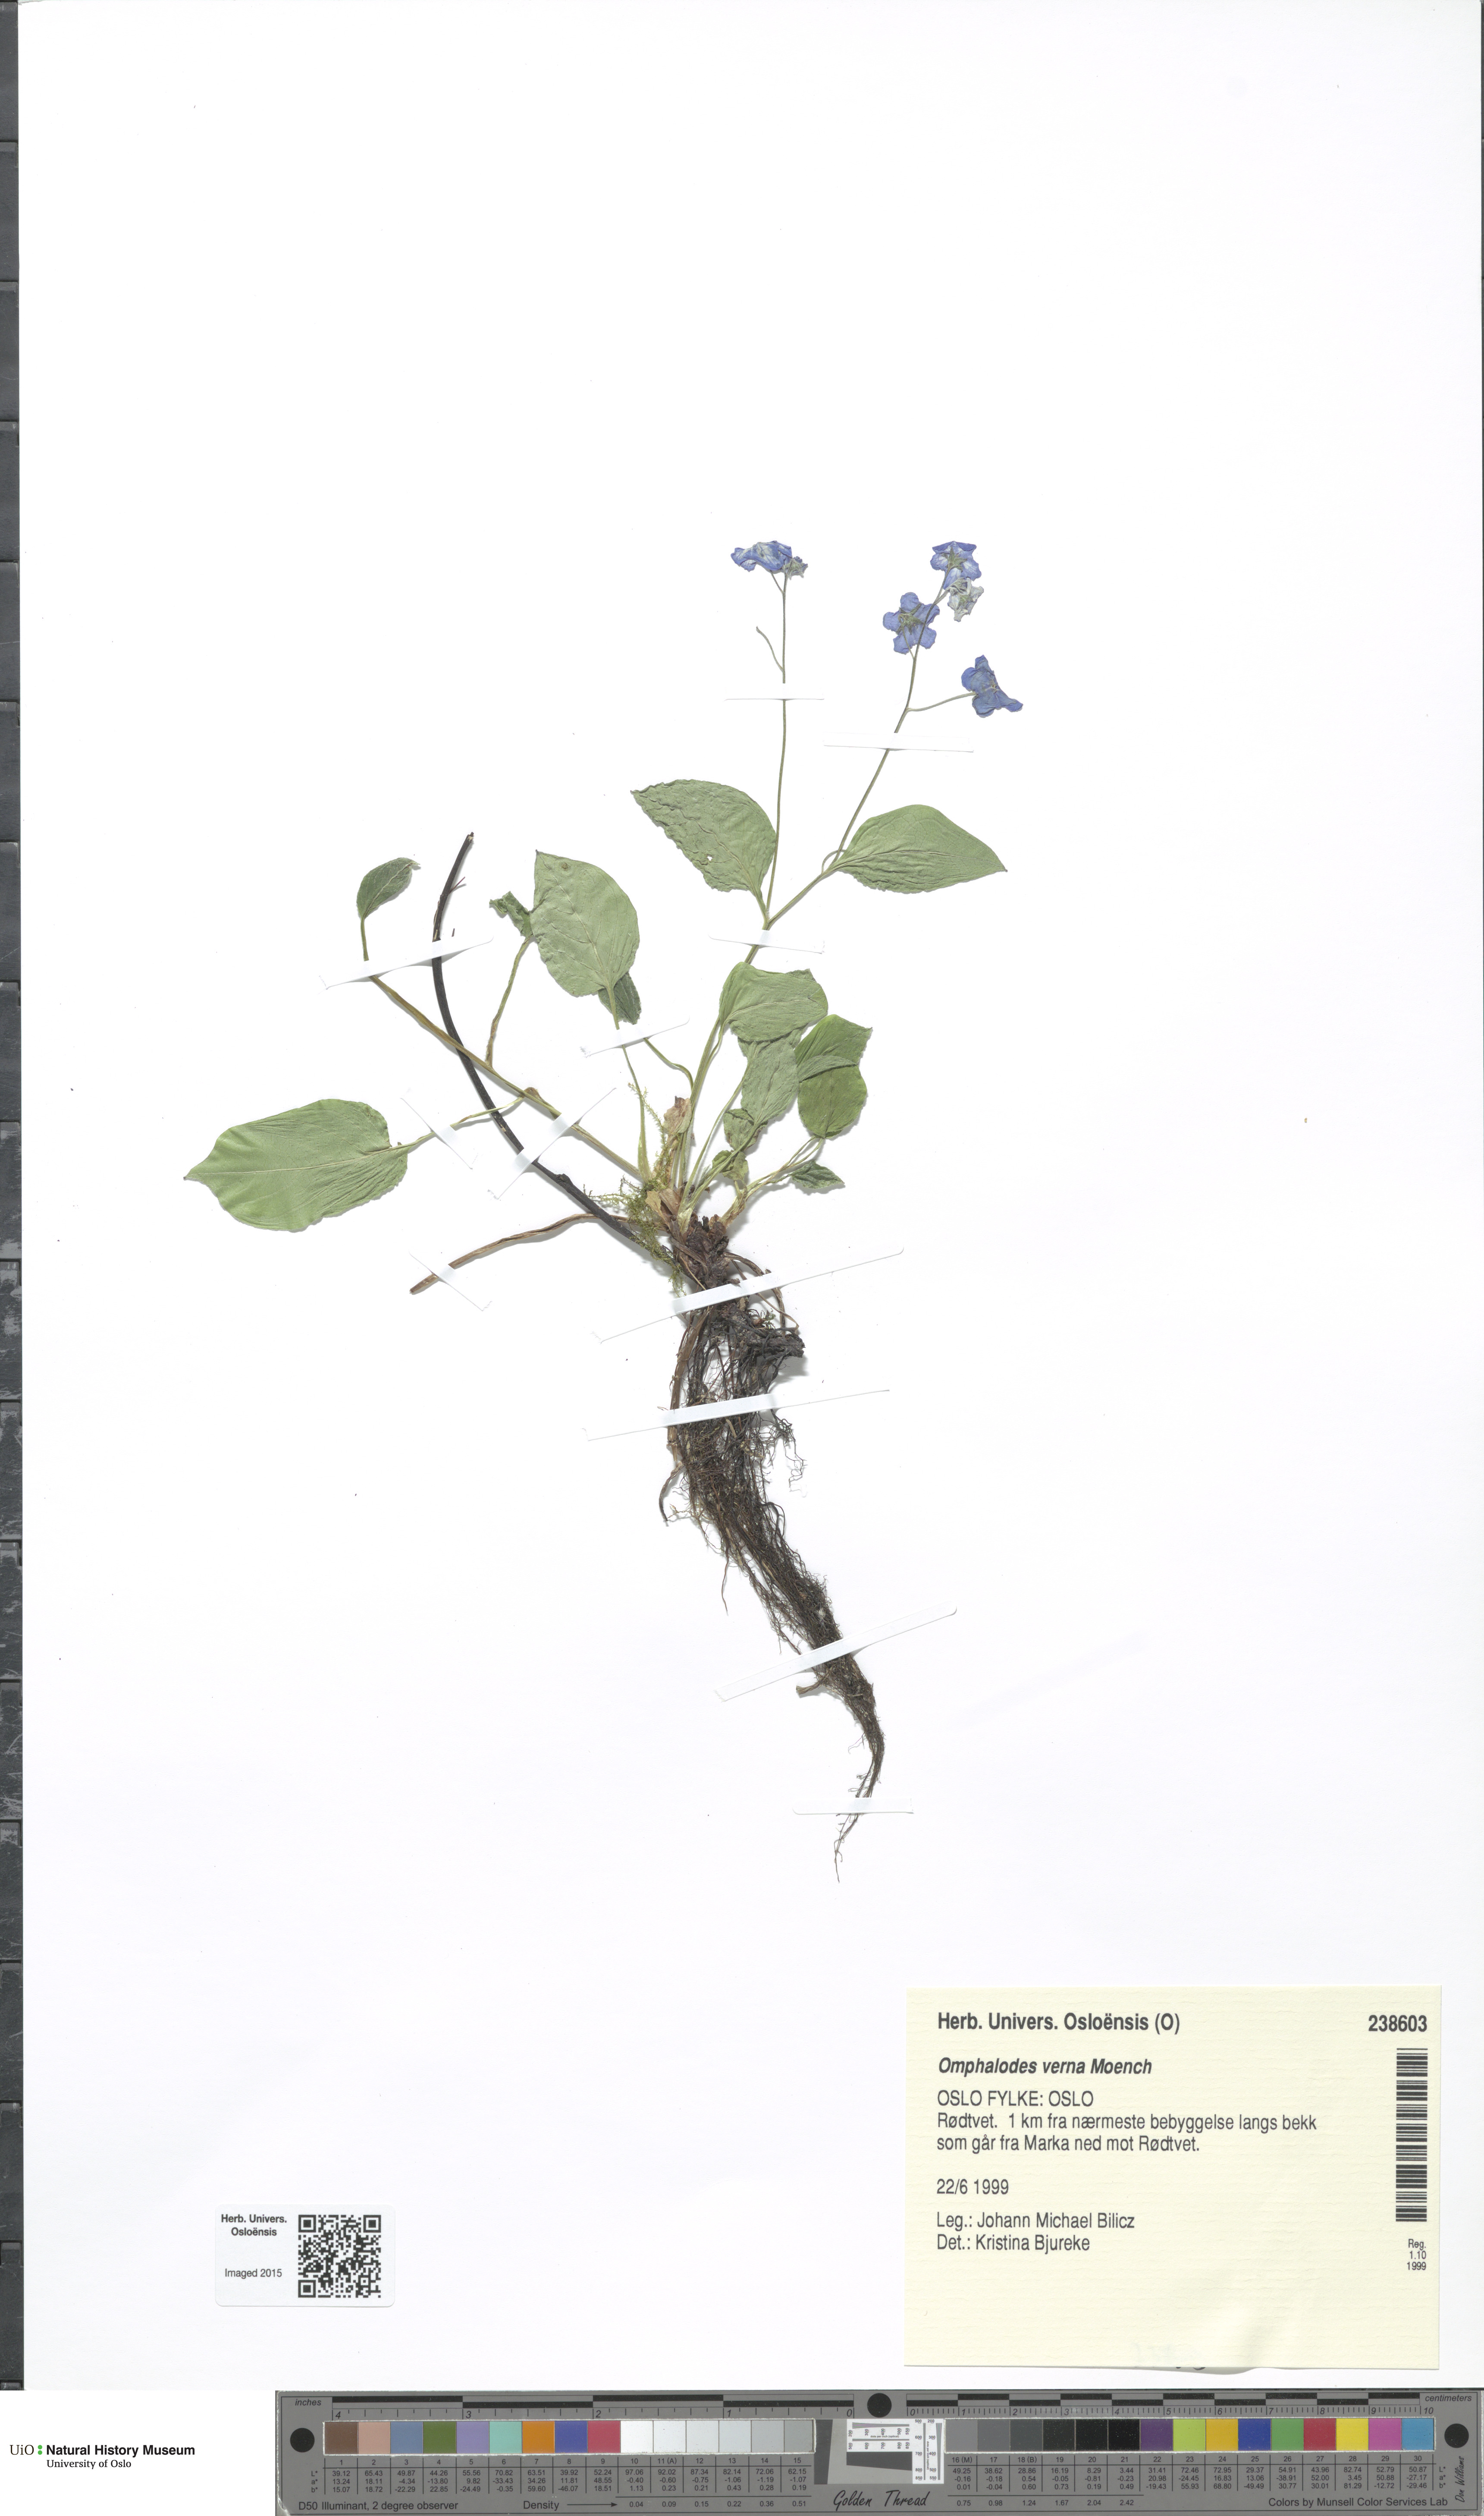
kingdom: Plantae
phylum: Tracheophyta
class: Magnoliopsida
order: Boraginales
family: Boraginaceae
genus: Omphalodes
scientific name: Omphalodes verna
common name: Blue-eyed-mary
